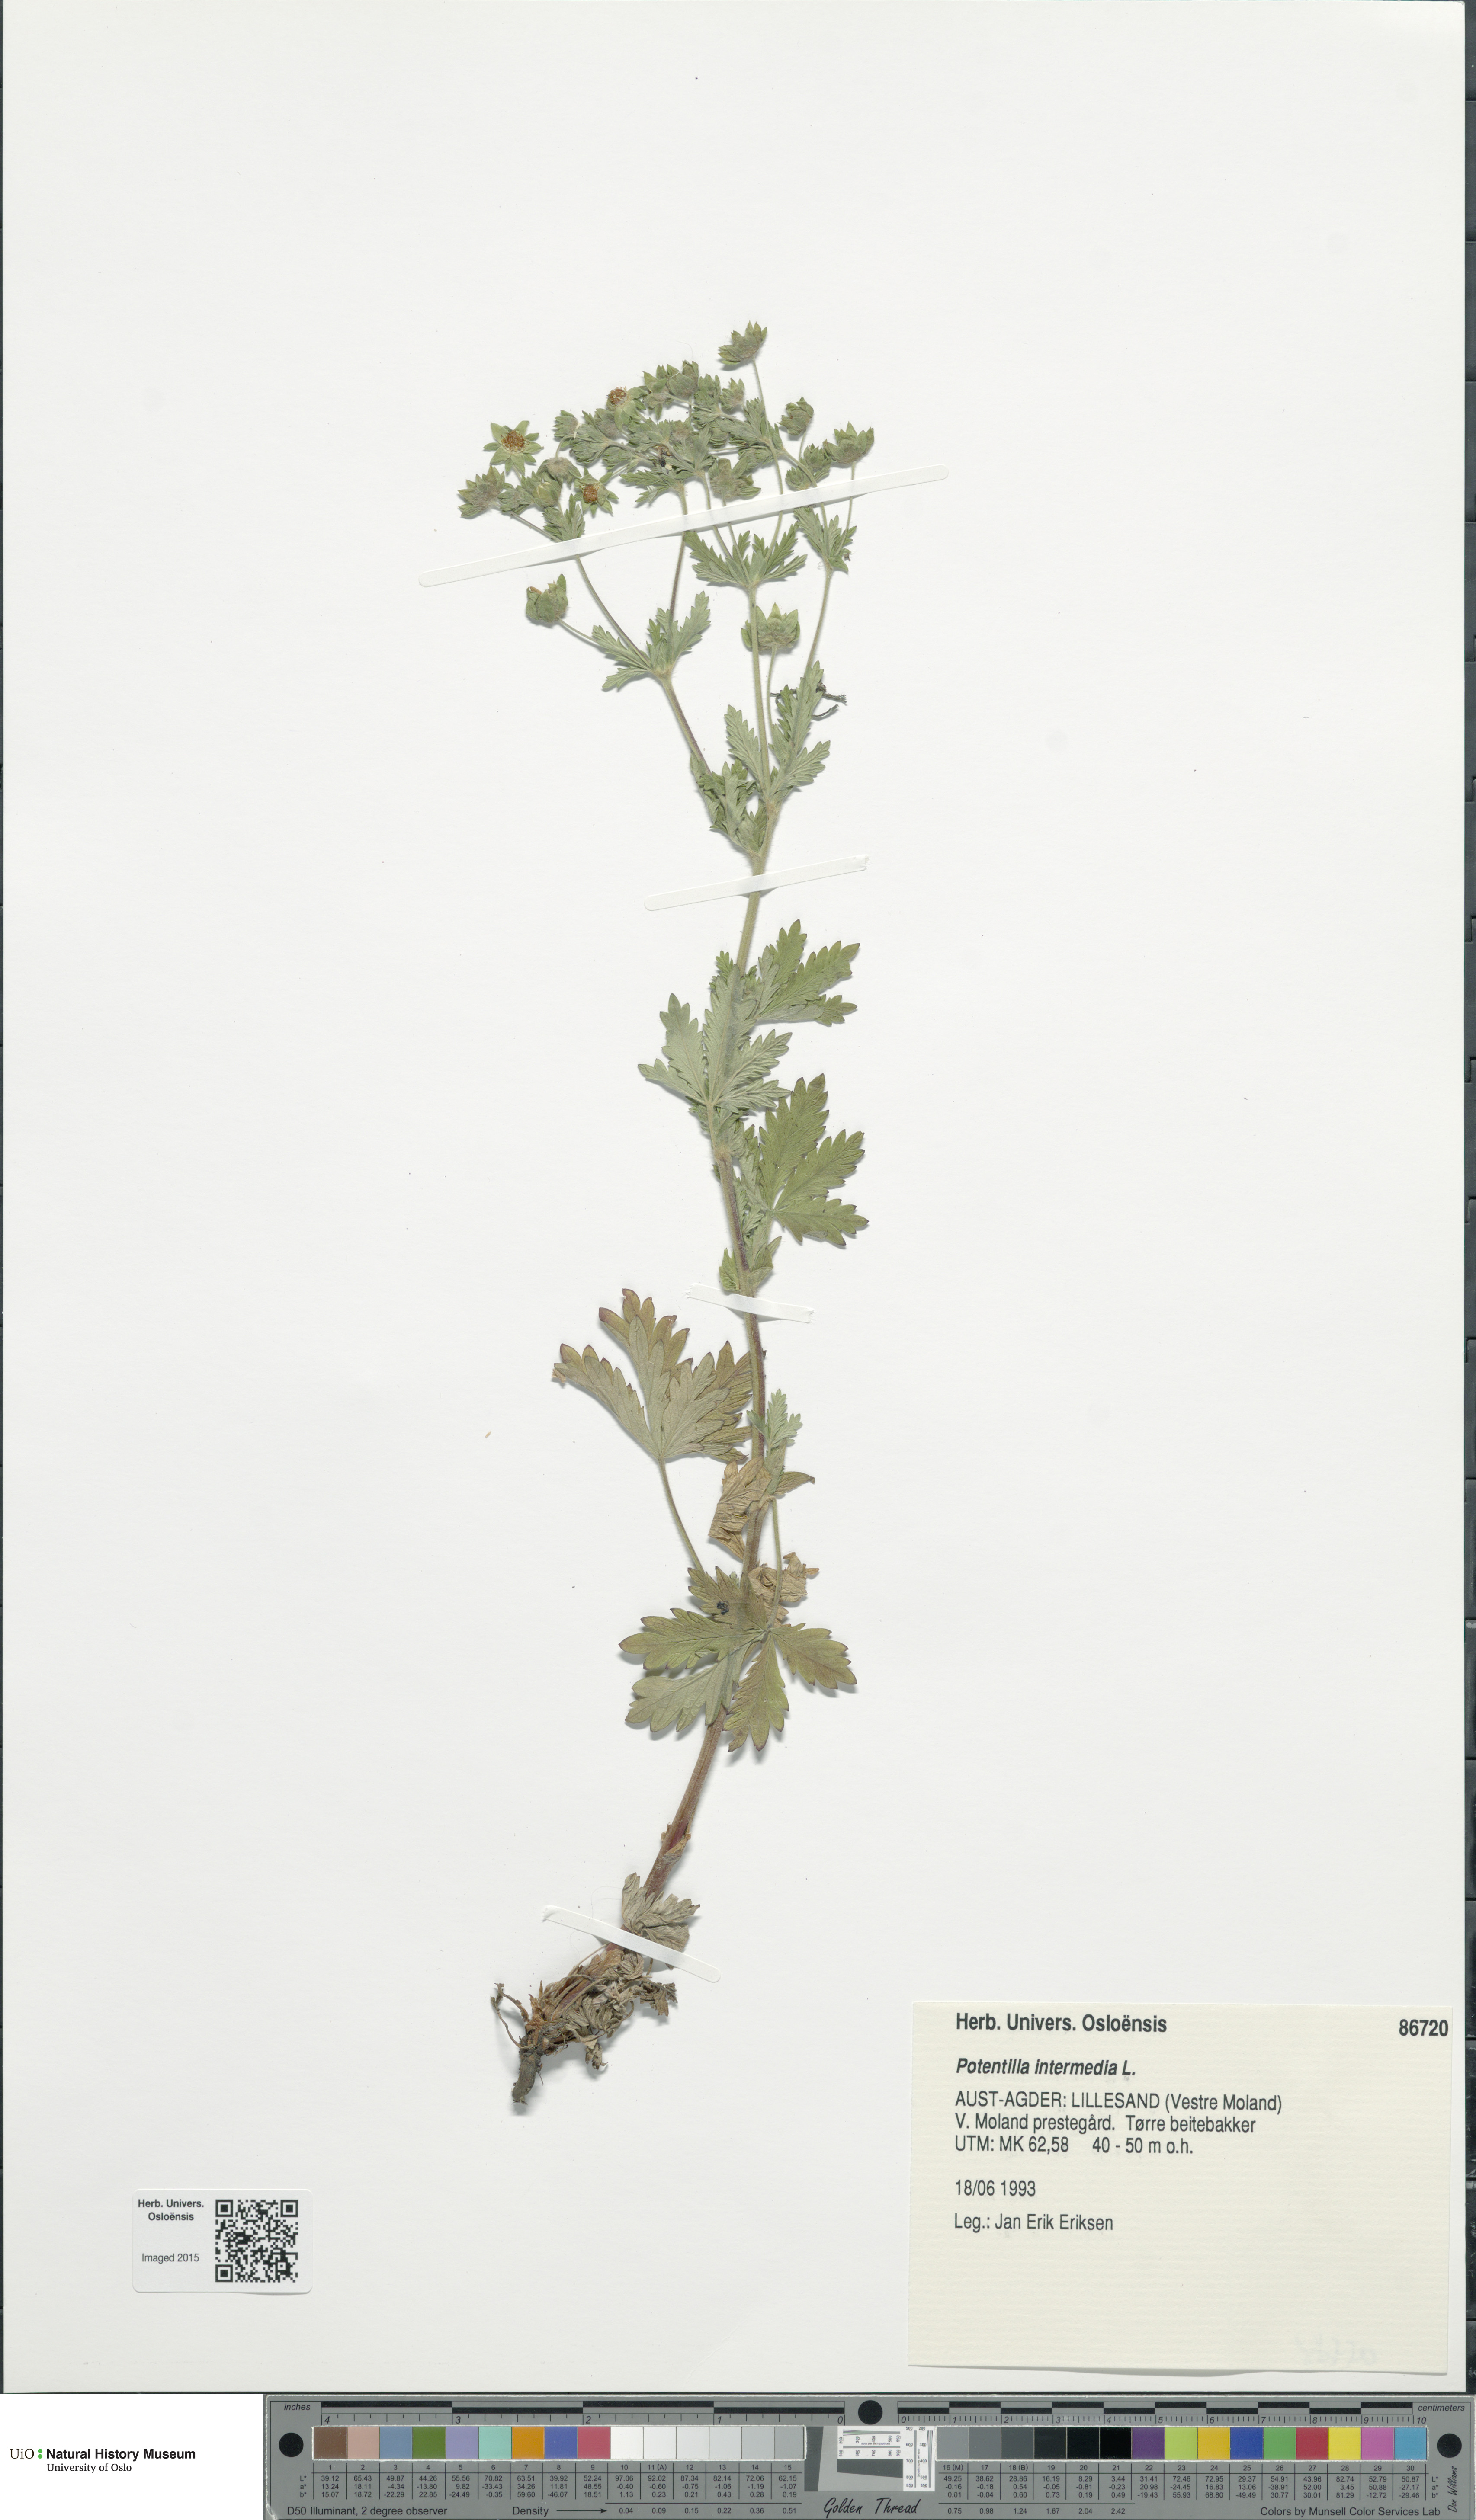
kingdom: Plantae
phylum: Tracheophyta
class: Magnoliopsida
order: Rosales
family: Rosaceae
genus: Potentilla
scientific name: Potentilla intermedia
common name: Downy cinquefoil
